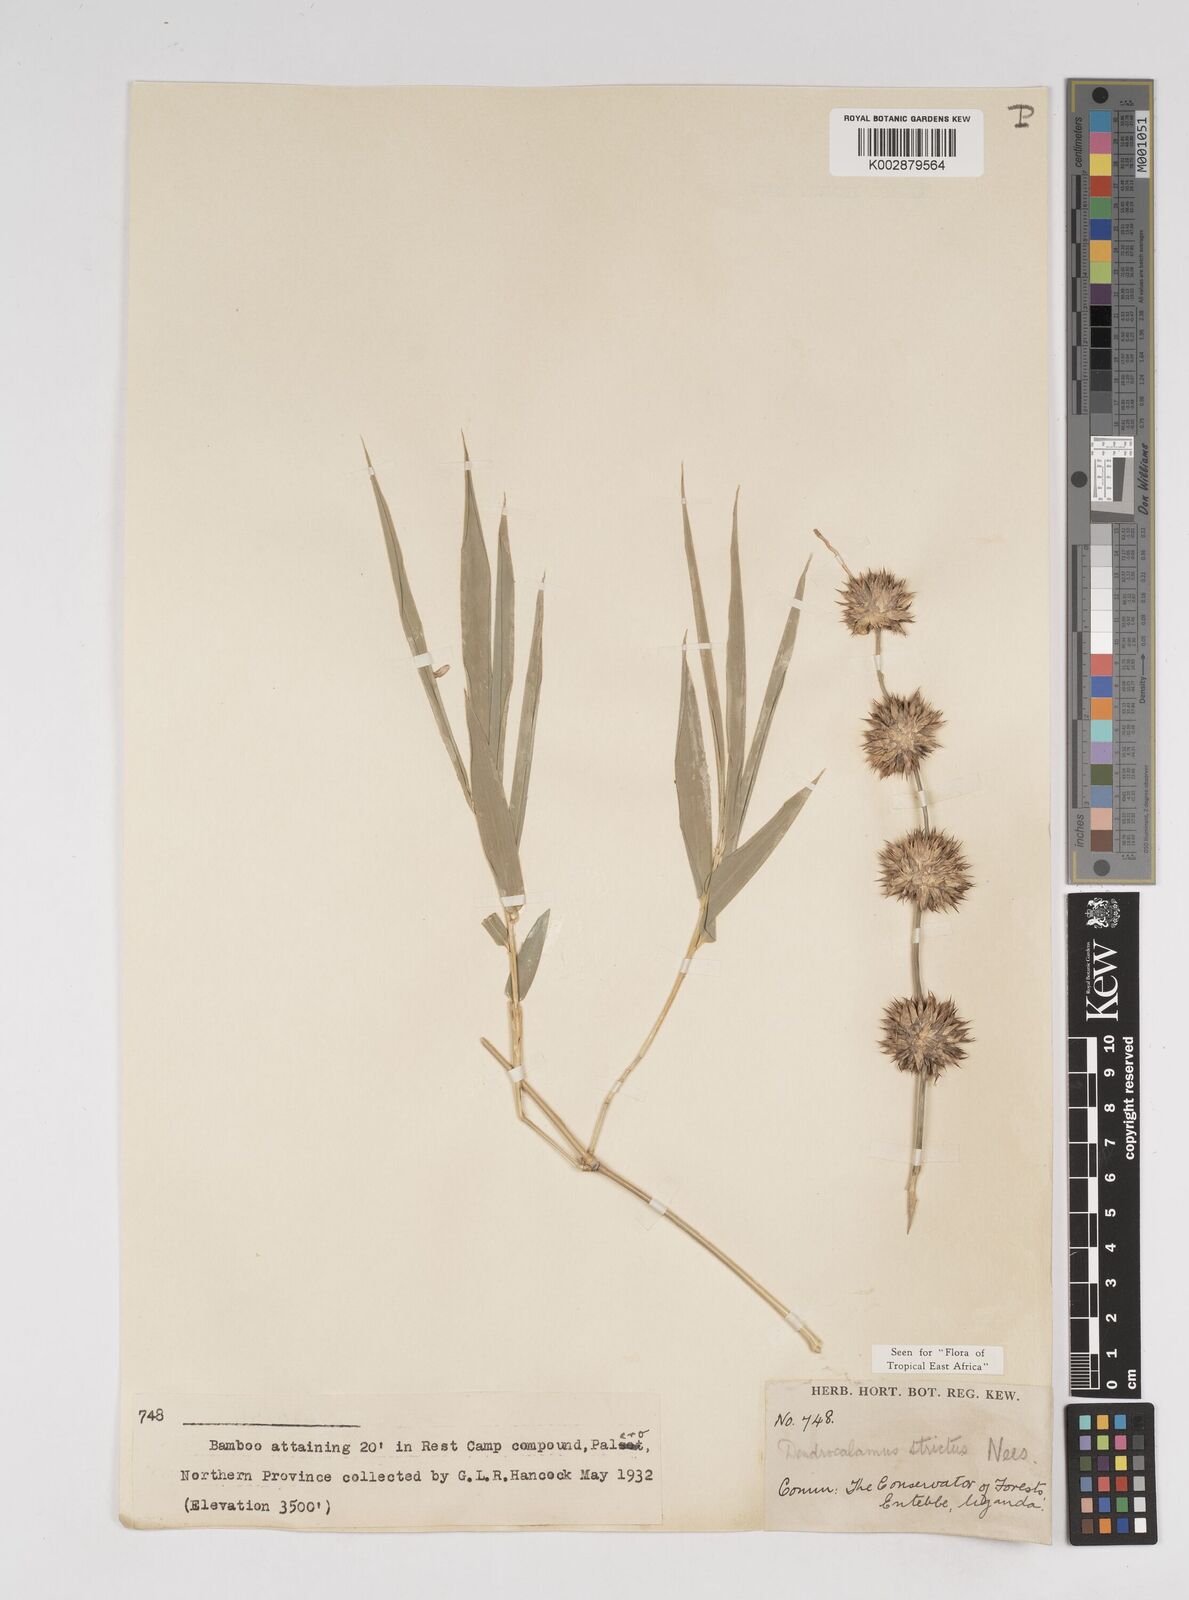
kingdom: Plantae
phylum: Tracheophyta
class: Liliopsida
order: Poales
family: Poaceae
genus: Dendrocalamus
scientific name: Dendrocalamus strictus
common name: Male bamboo
